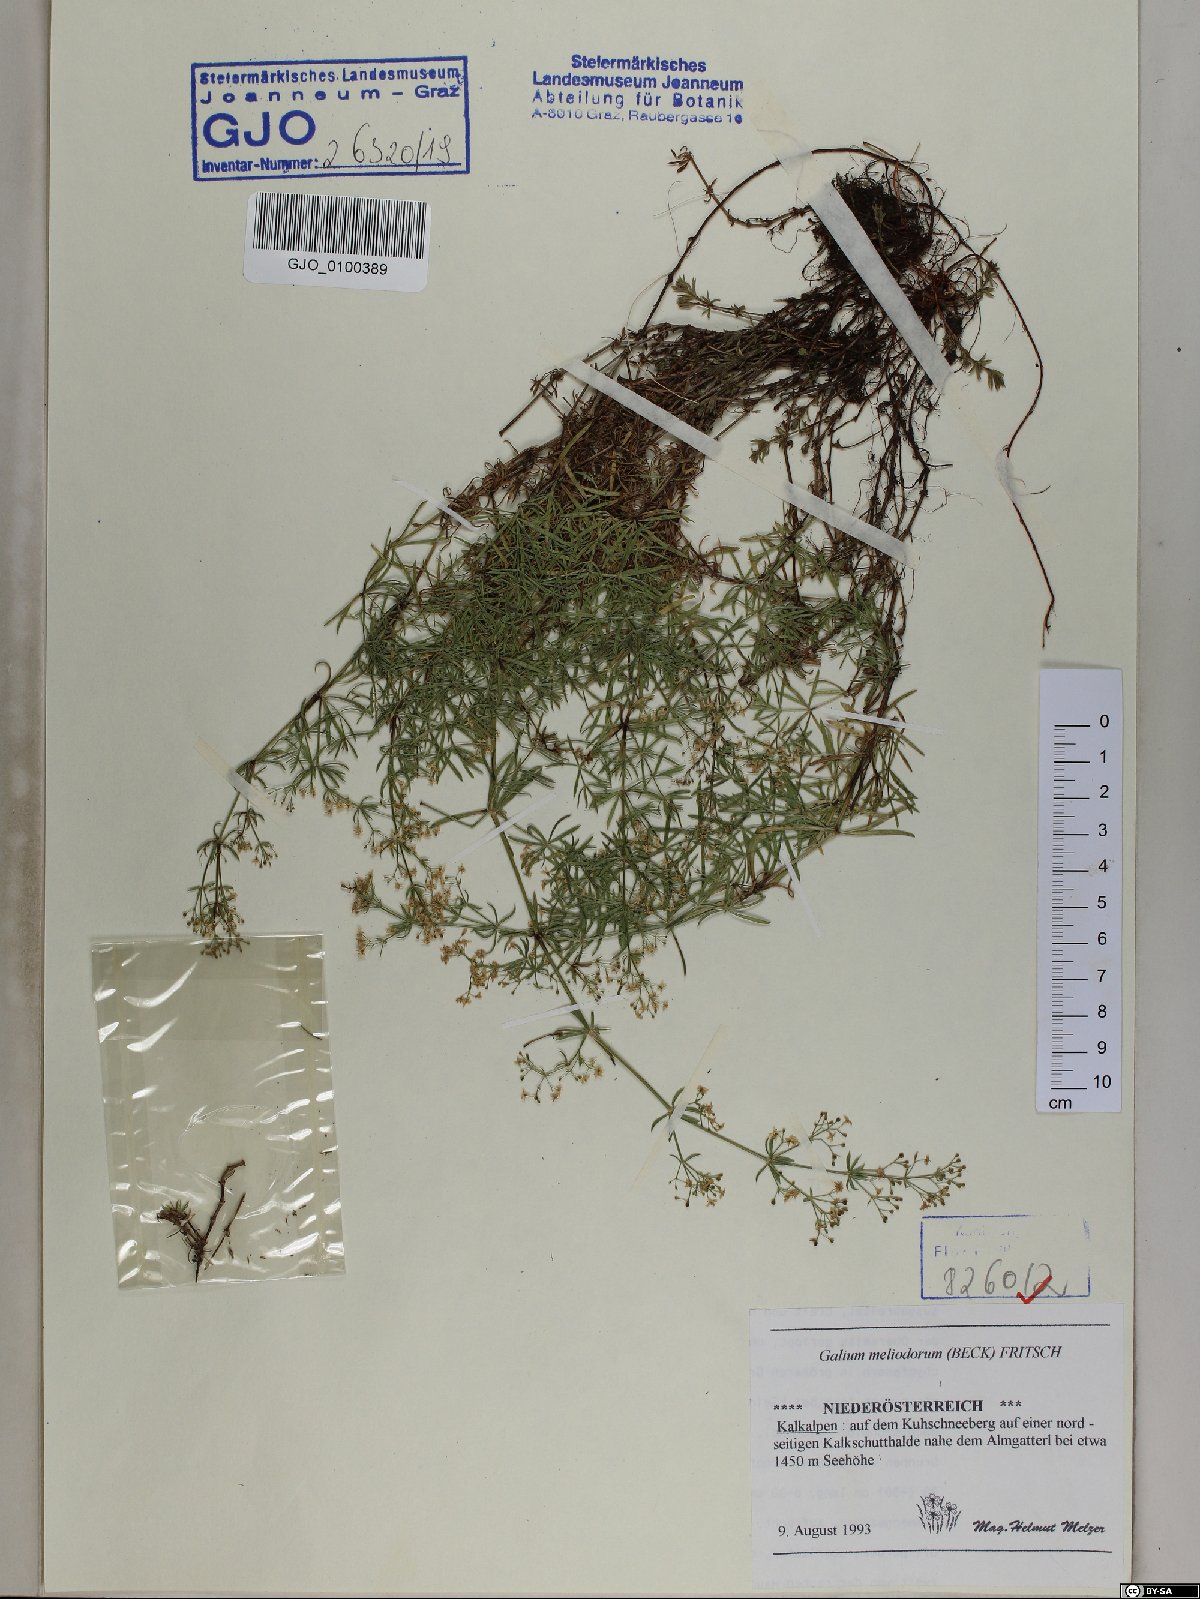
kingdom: Plantae
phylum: Tracheophyta
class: Magnoliopsida
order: Gentianales
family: Rubiaceae
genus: Galium
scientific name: Galium meliodorum
